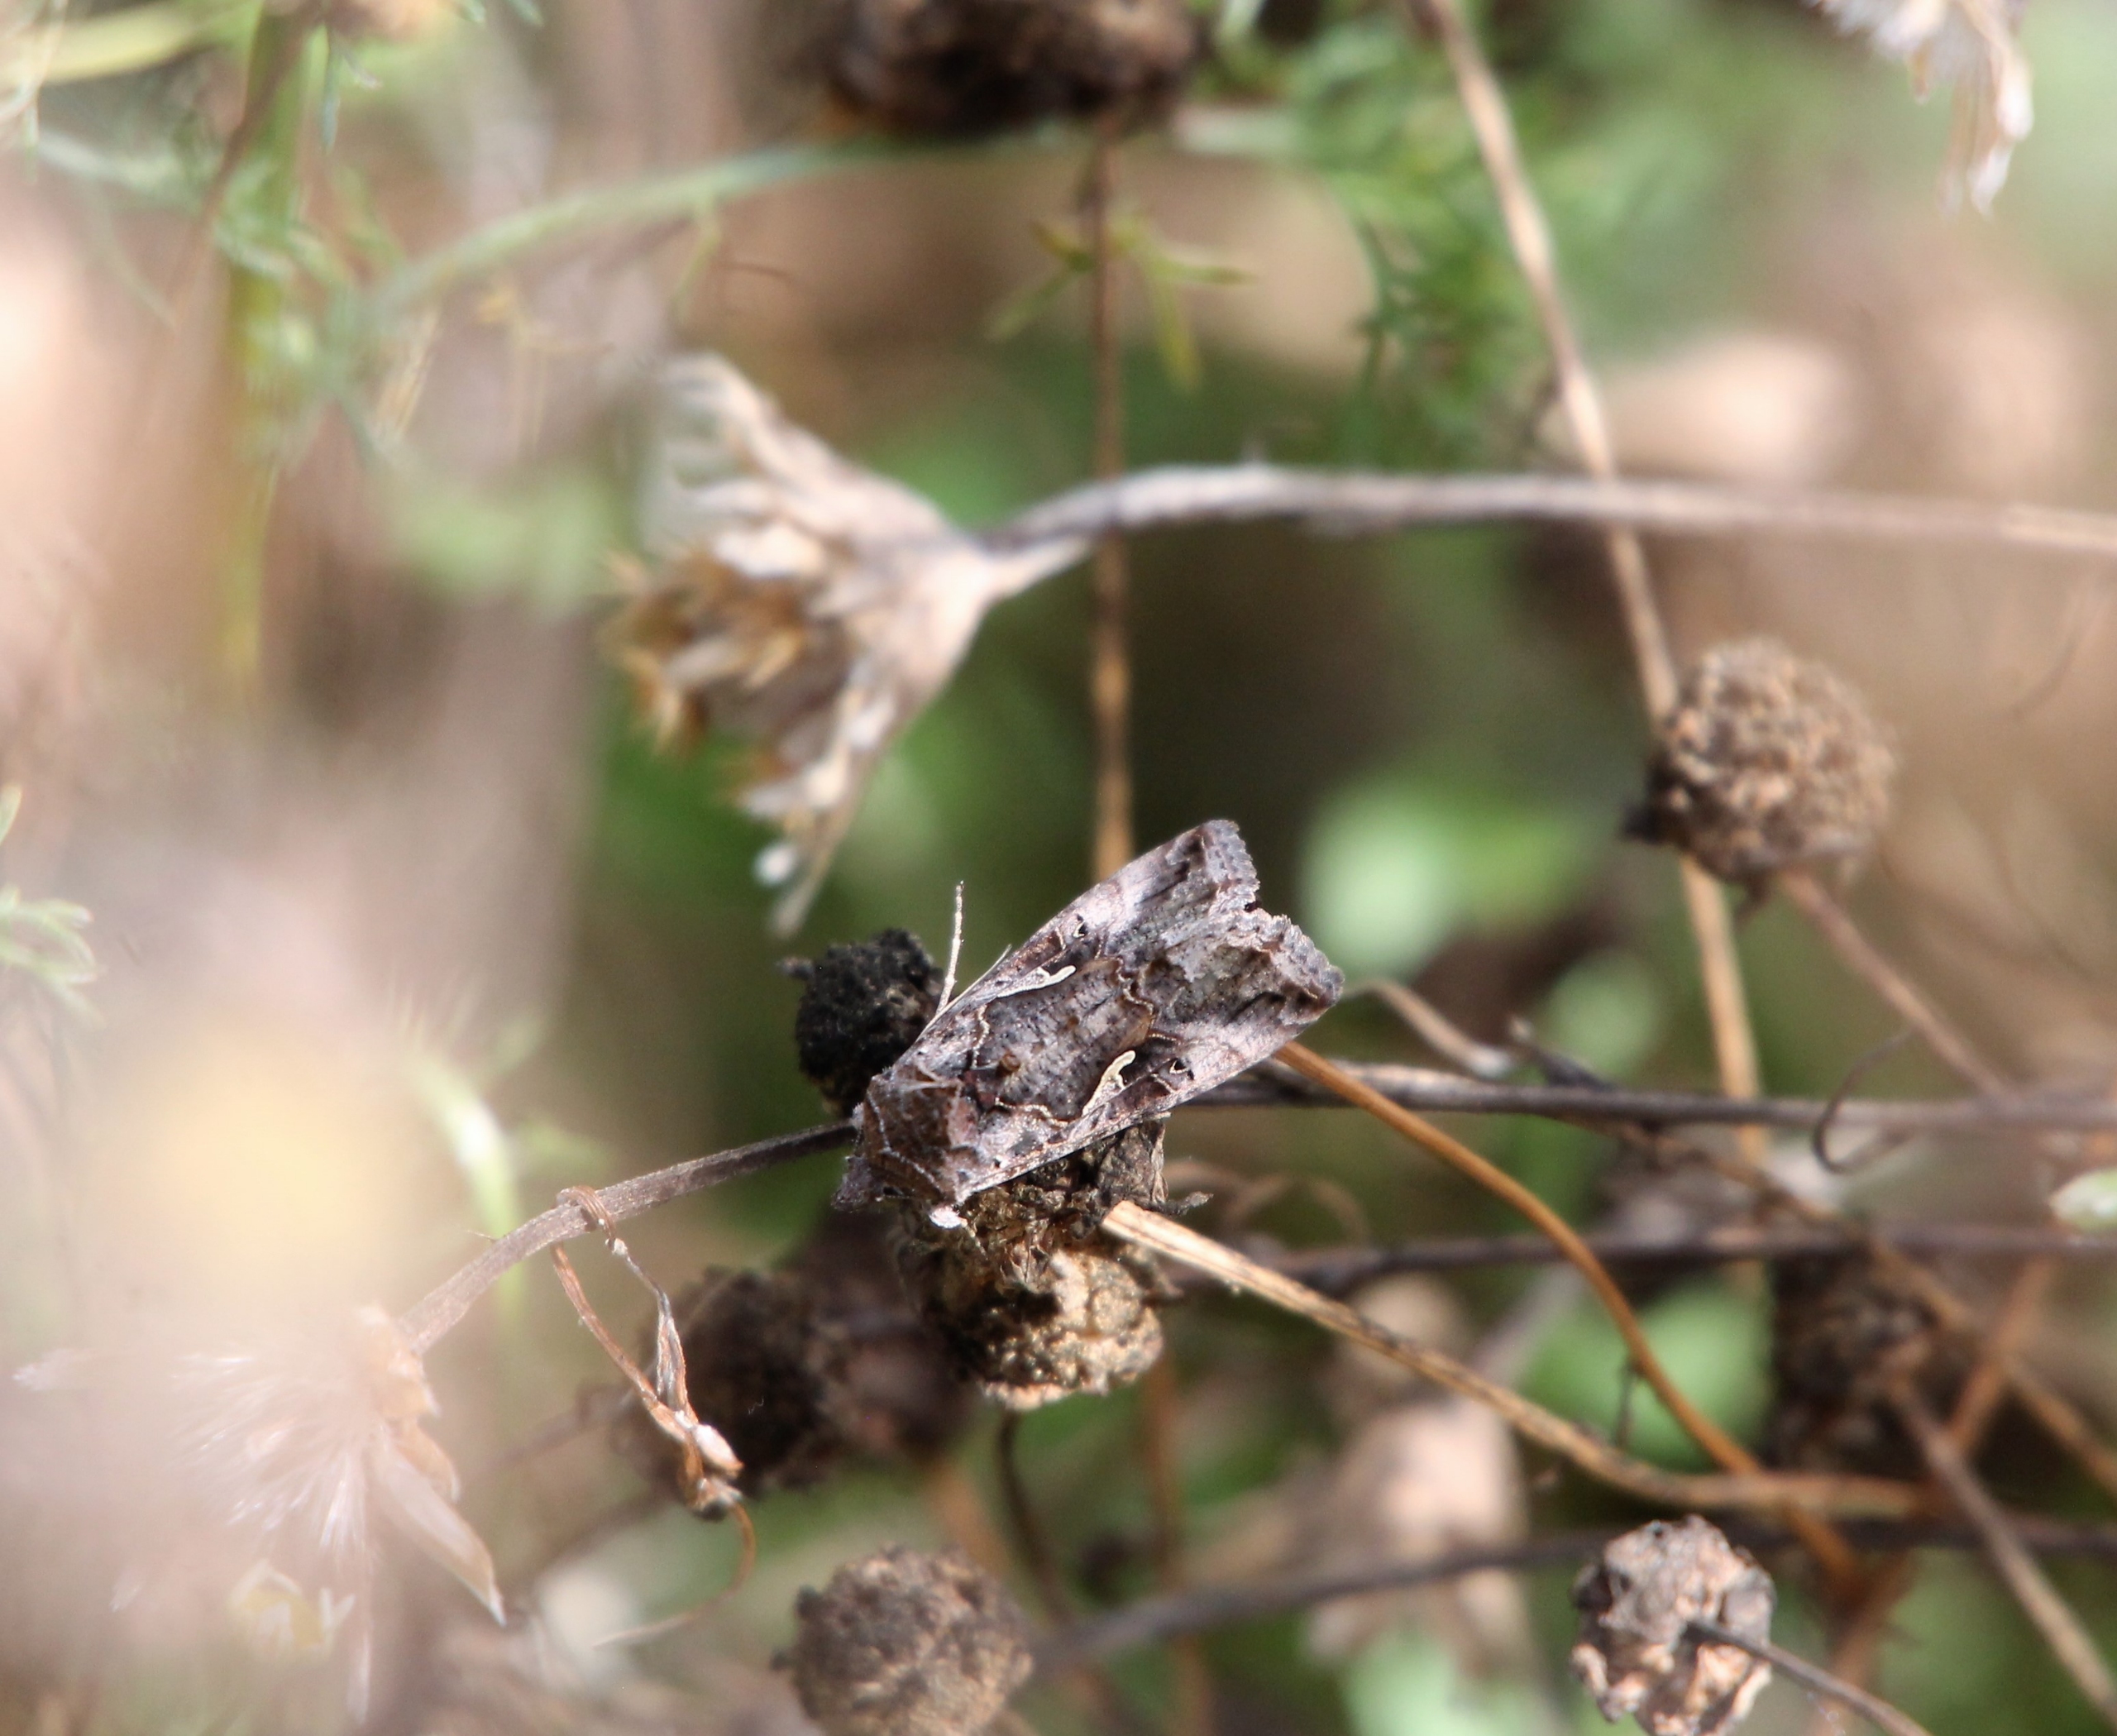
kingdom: Animalia
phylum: Arthropoda
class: Insecta
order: Lepidoptera
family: Noctuidae
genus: Autographa
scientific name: Autographa gamma
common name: Gammaugle
